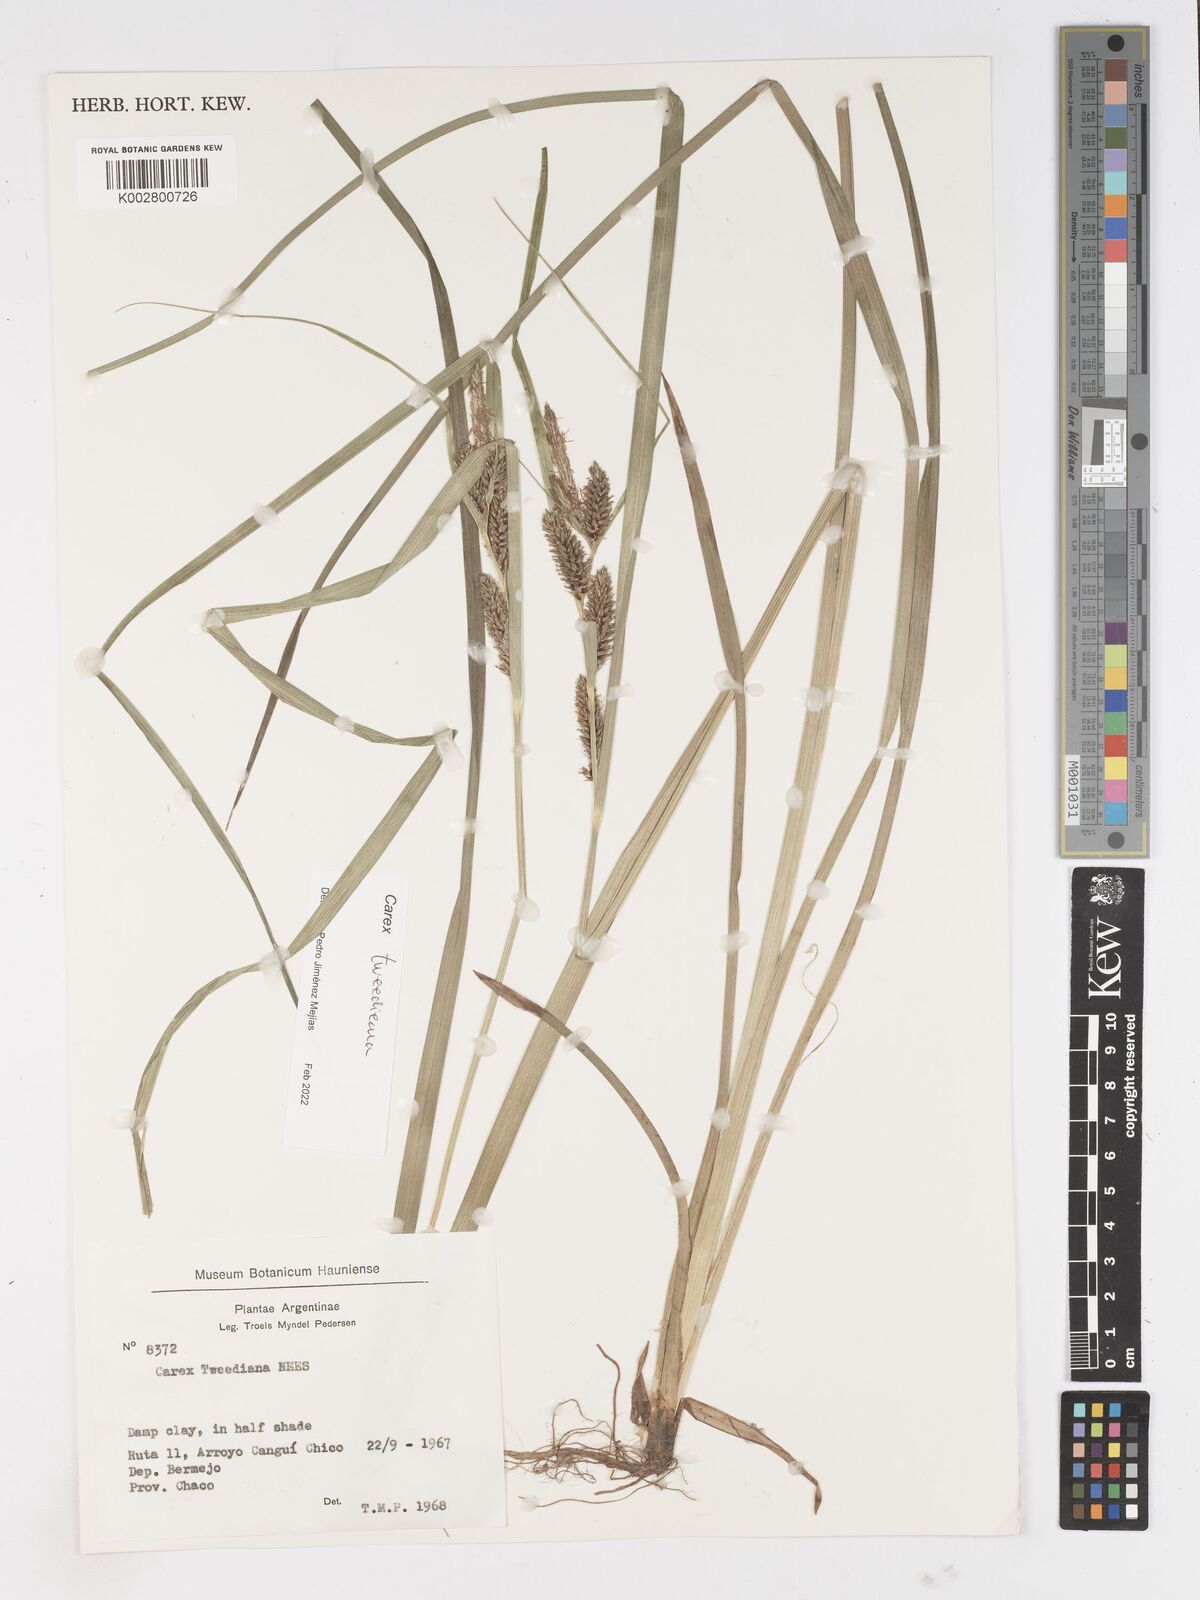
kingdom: Plantae
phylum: Tracheophyta
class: Liliopsida
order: Poales
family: Cyperaceae
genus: Carex
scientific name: Carex tweedieana
